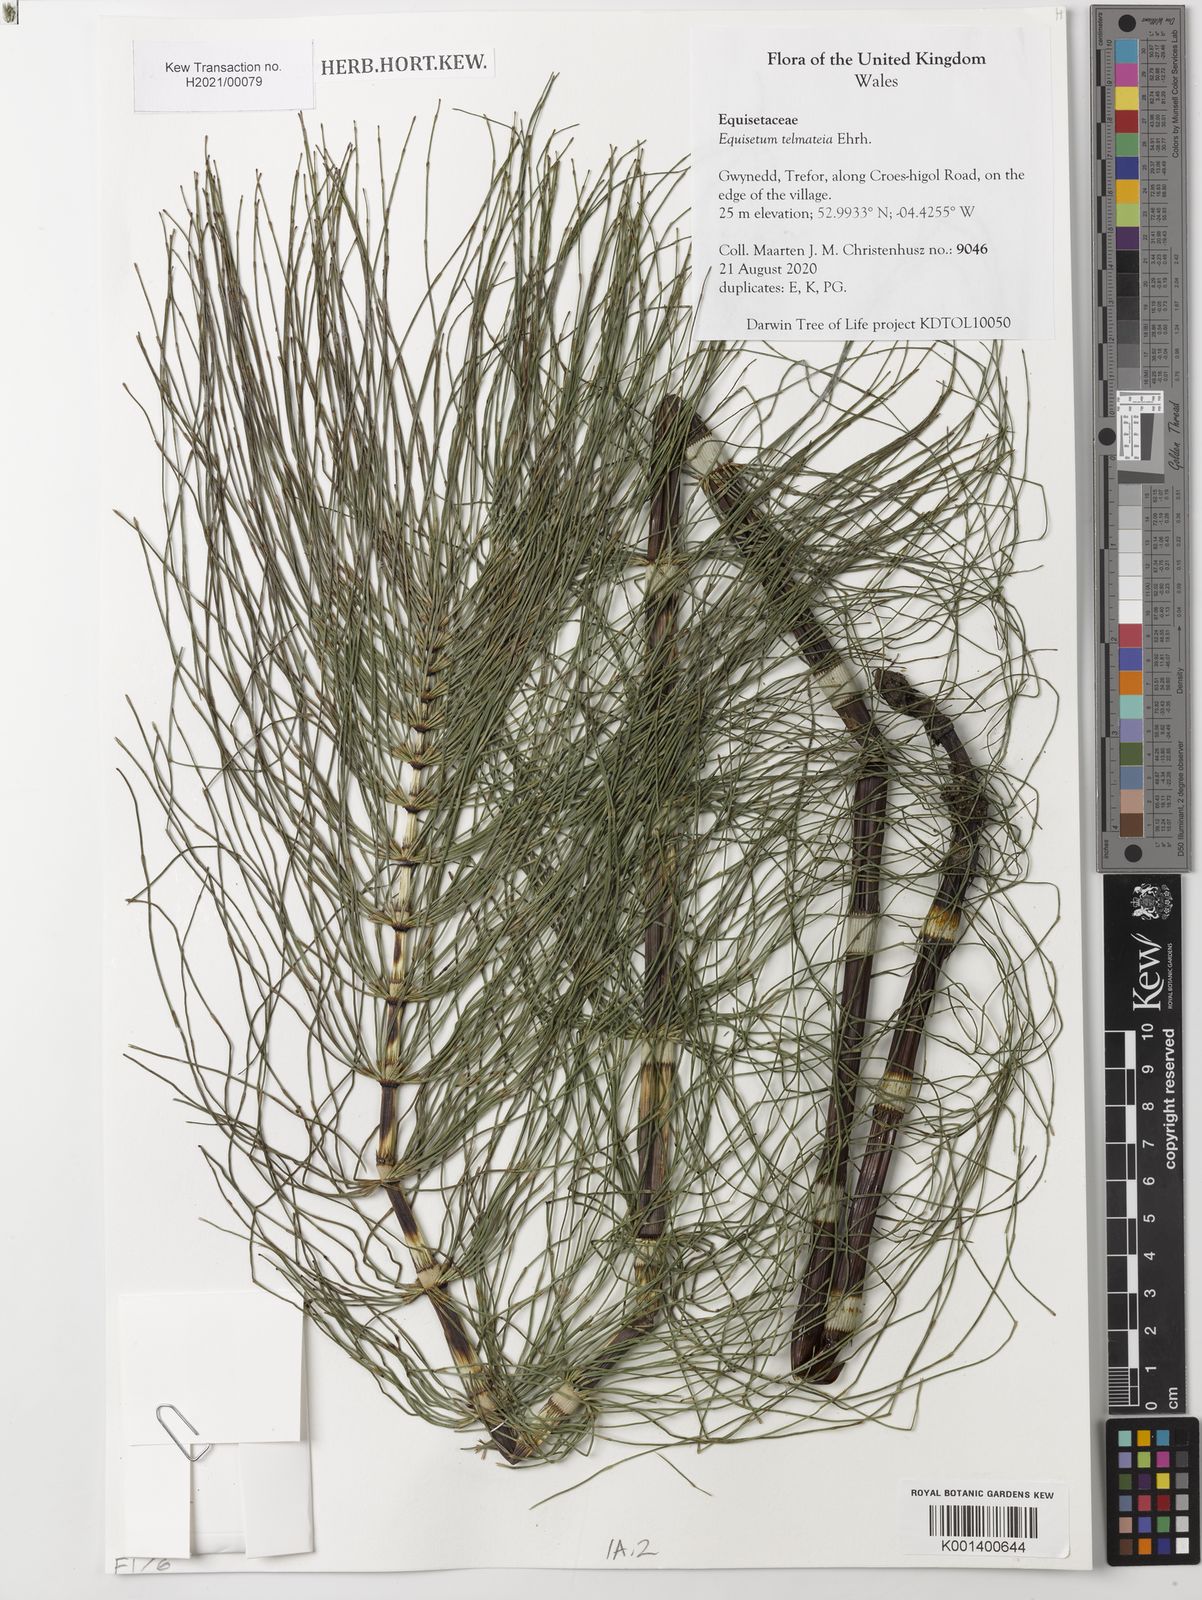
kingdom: Plantae
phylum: Tracheophyta
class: Polypodiopsida
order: Equisetales
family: Equisetaceae
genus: Equisetum
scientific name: Equisetum telmateia
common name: Great horsetail
